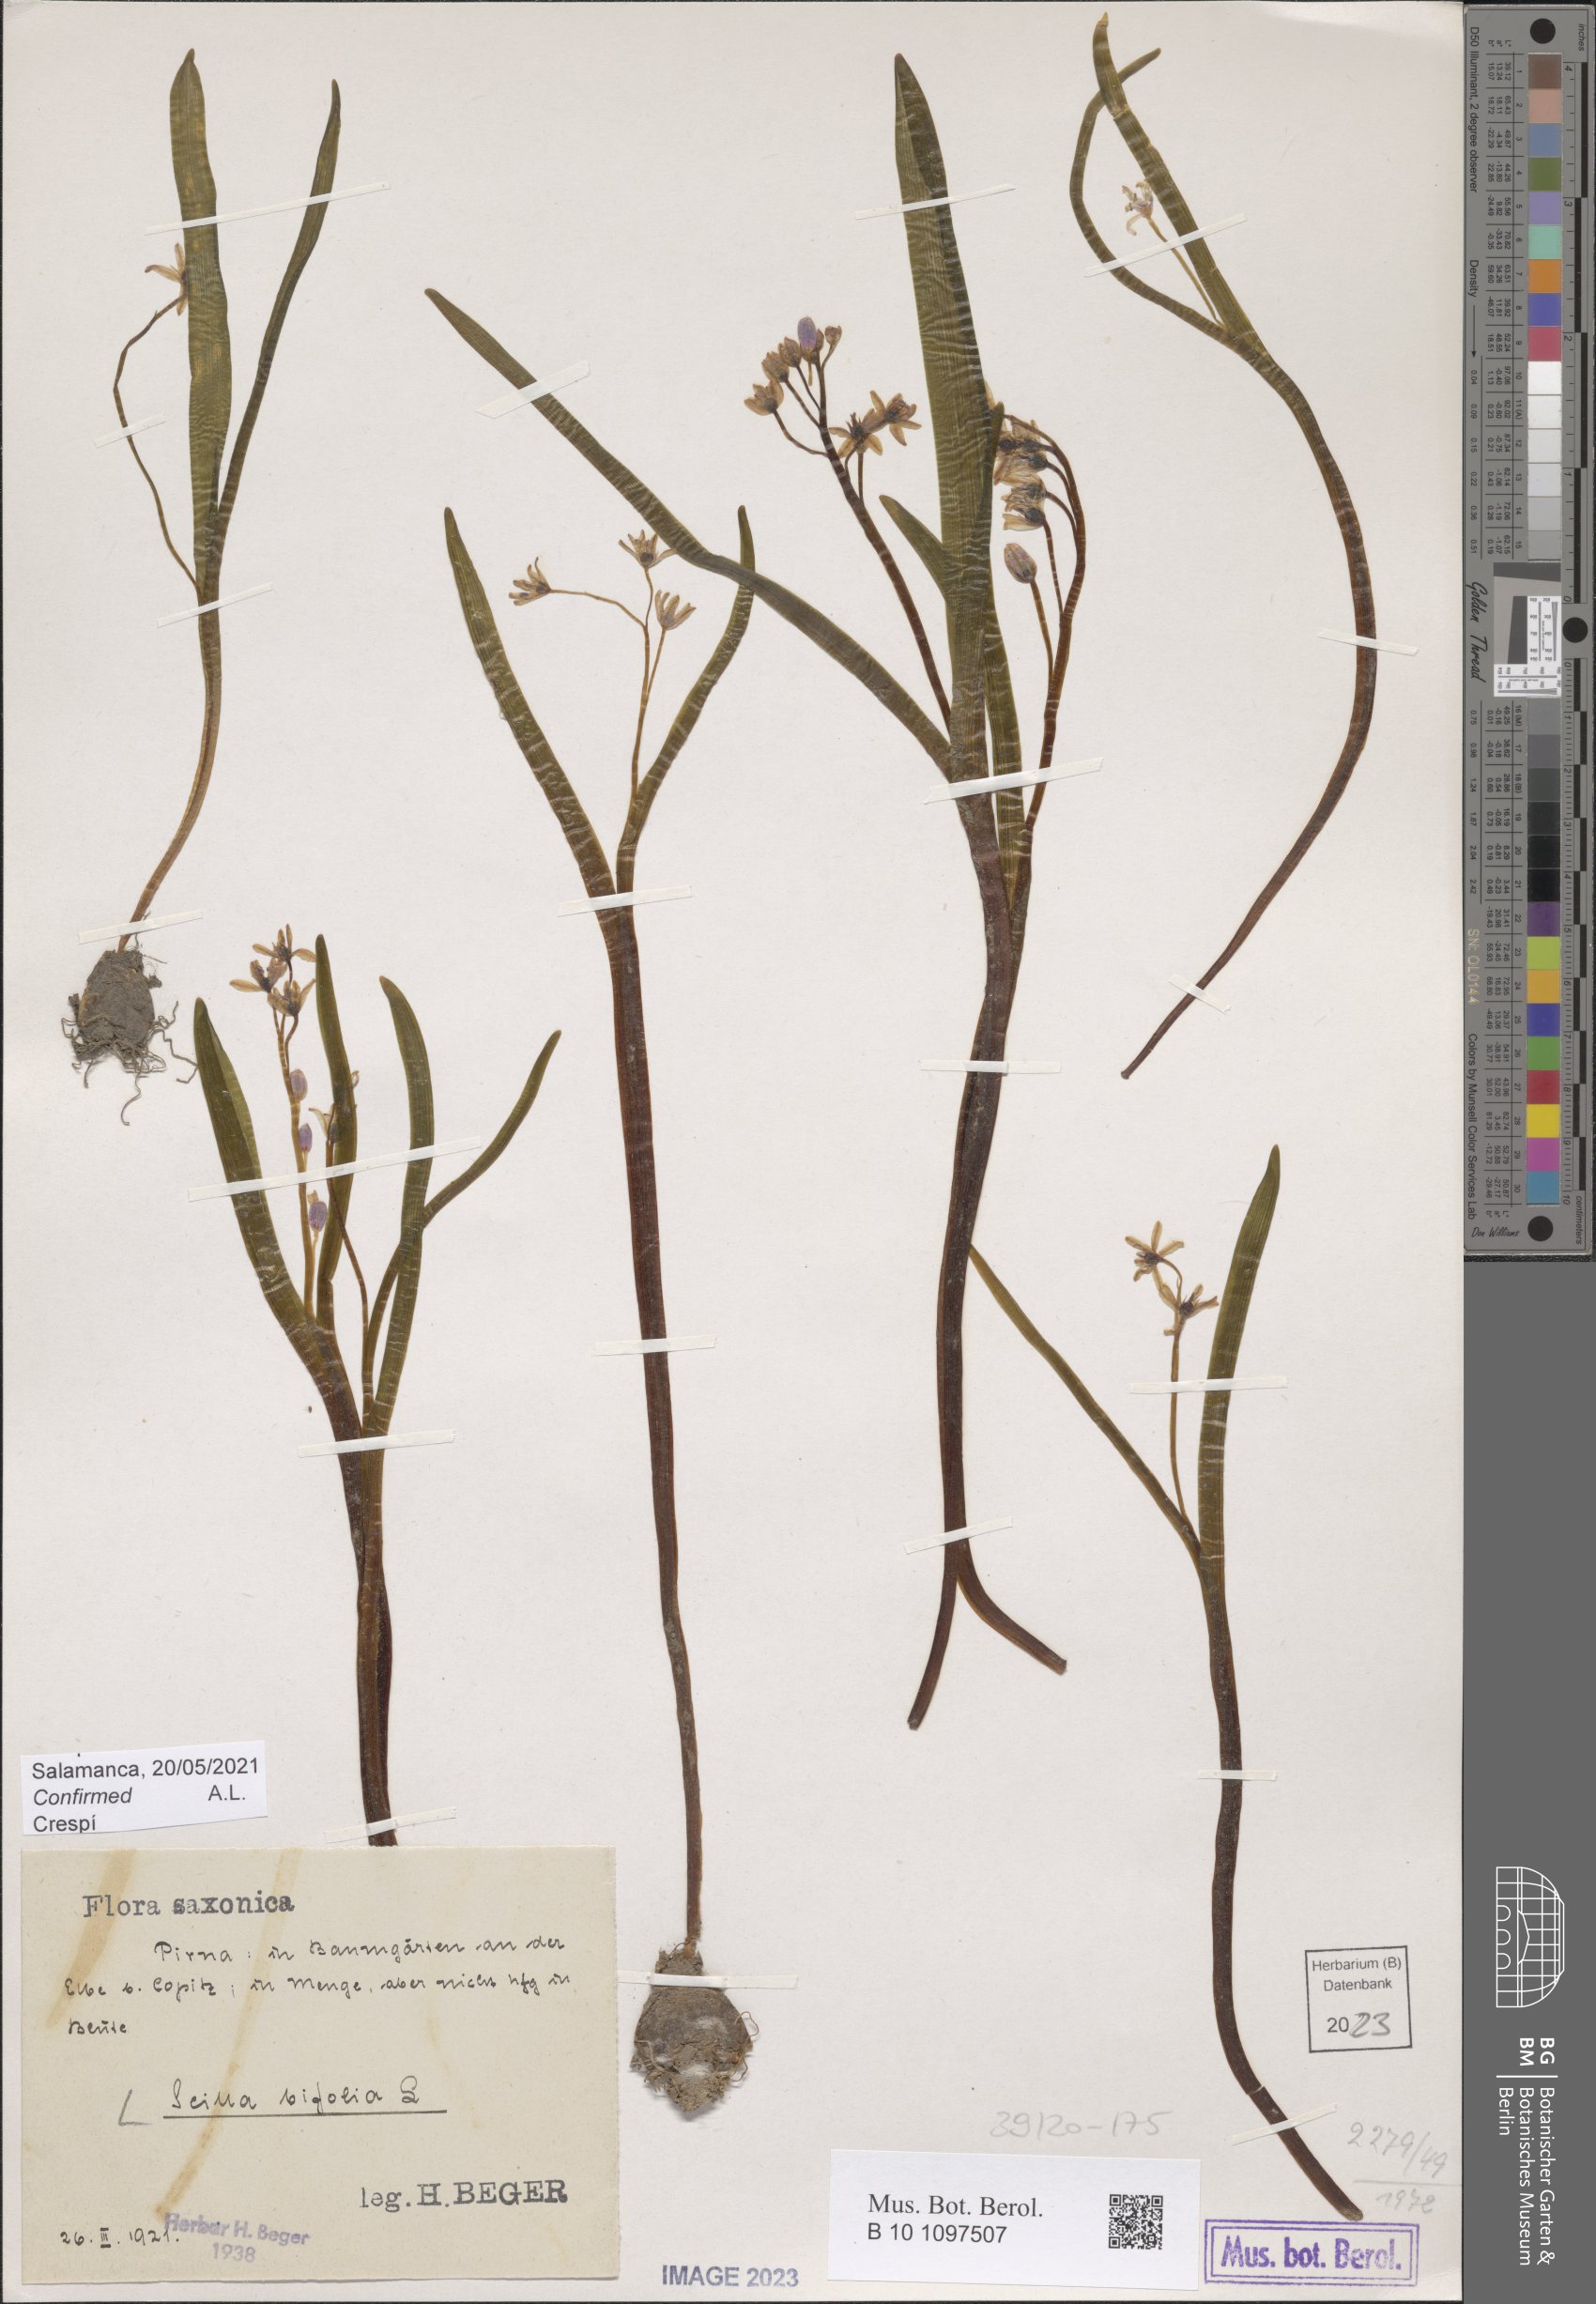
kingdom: Plantae
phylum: Tracheophyta
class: Liliopsida
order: Asparagales
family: Asparagaceae
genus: Scilla
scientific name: Scilla bifolia
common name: Alpine squill
